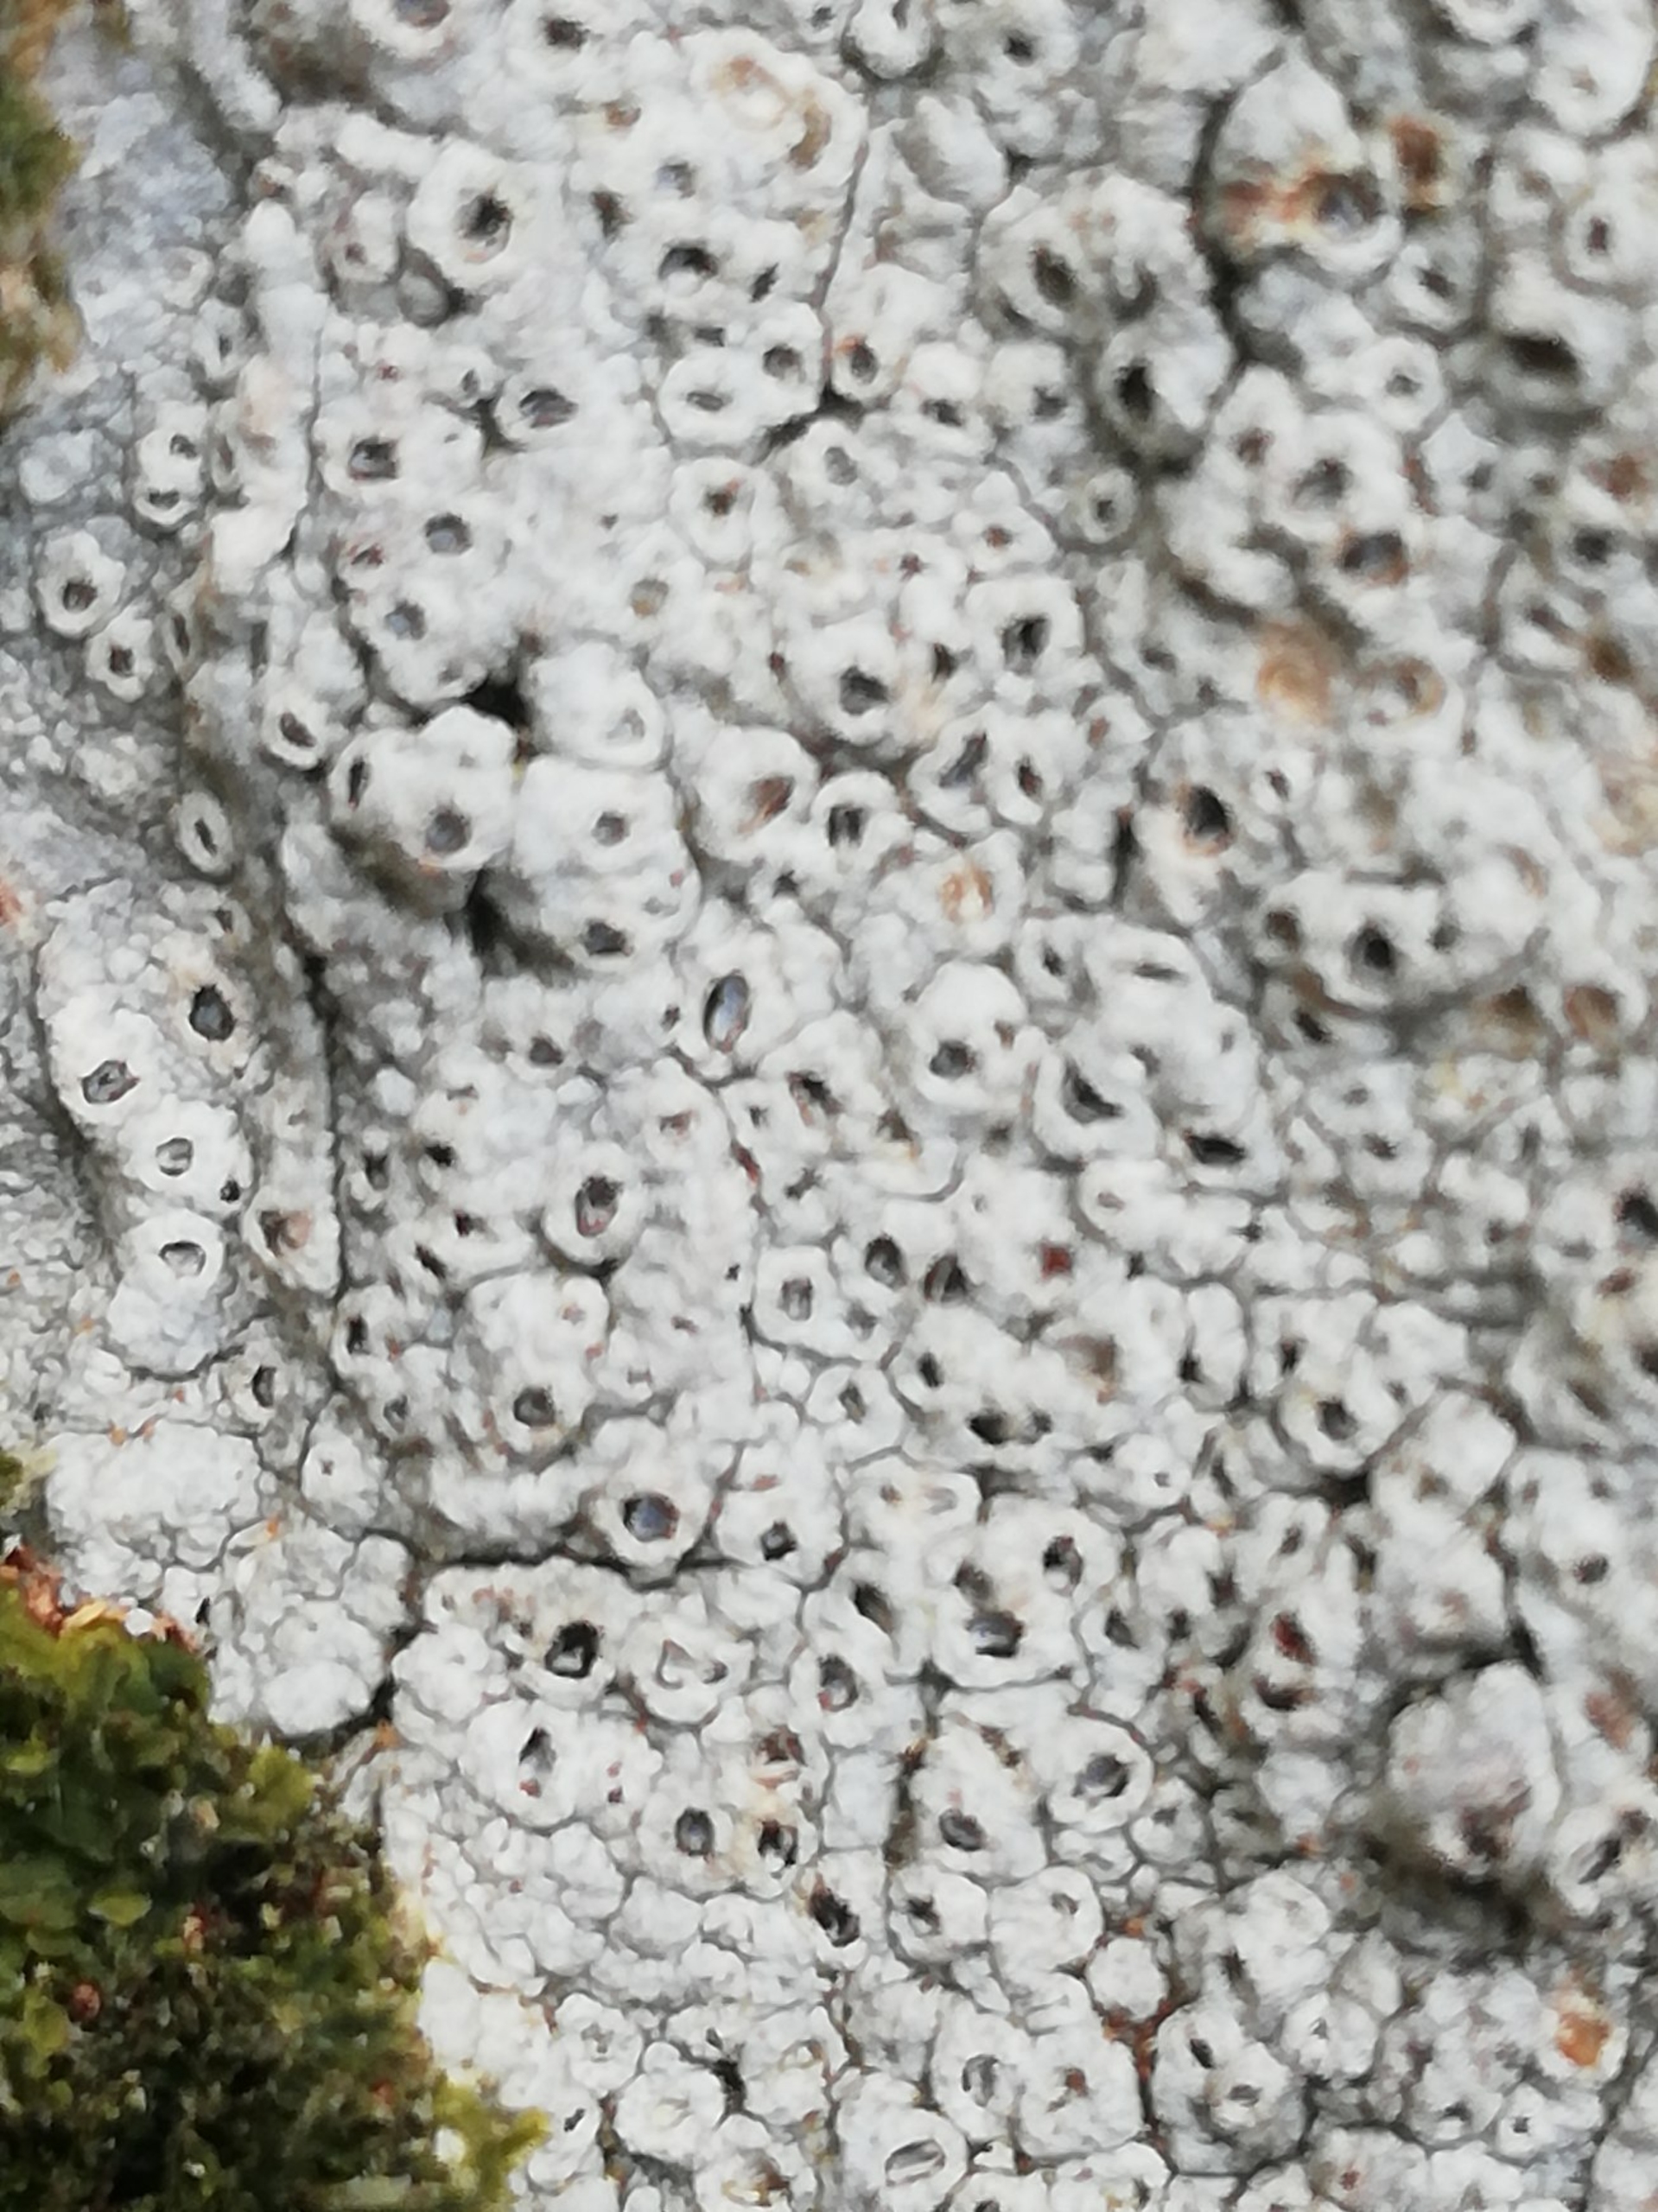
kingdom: Fungi
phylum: Ascomycota
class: Lecanoromycetes
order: Ostropales
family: Graphidaceae
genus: Thelotrema
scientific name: Thelotrema lepadinum
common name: Almindelig slørkantlav
